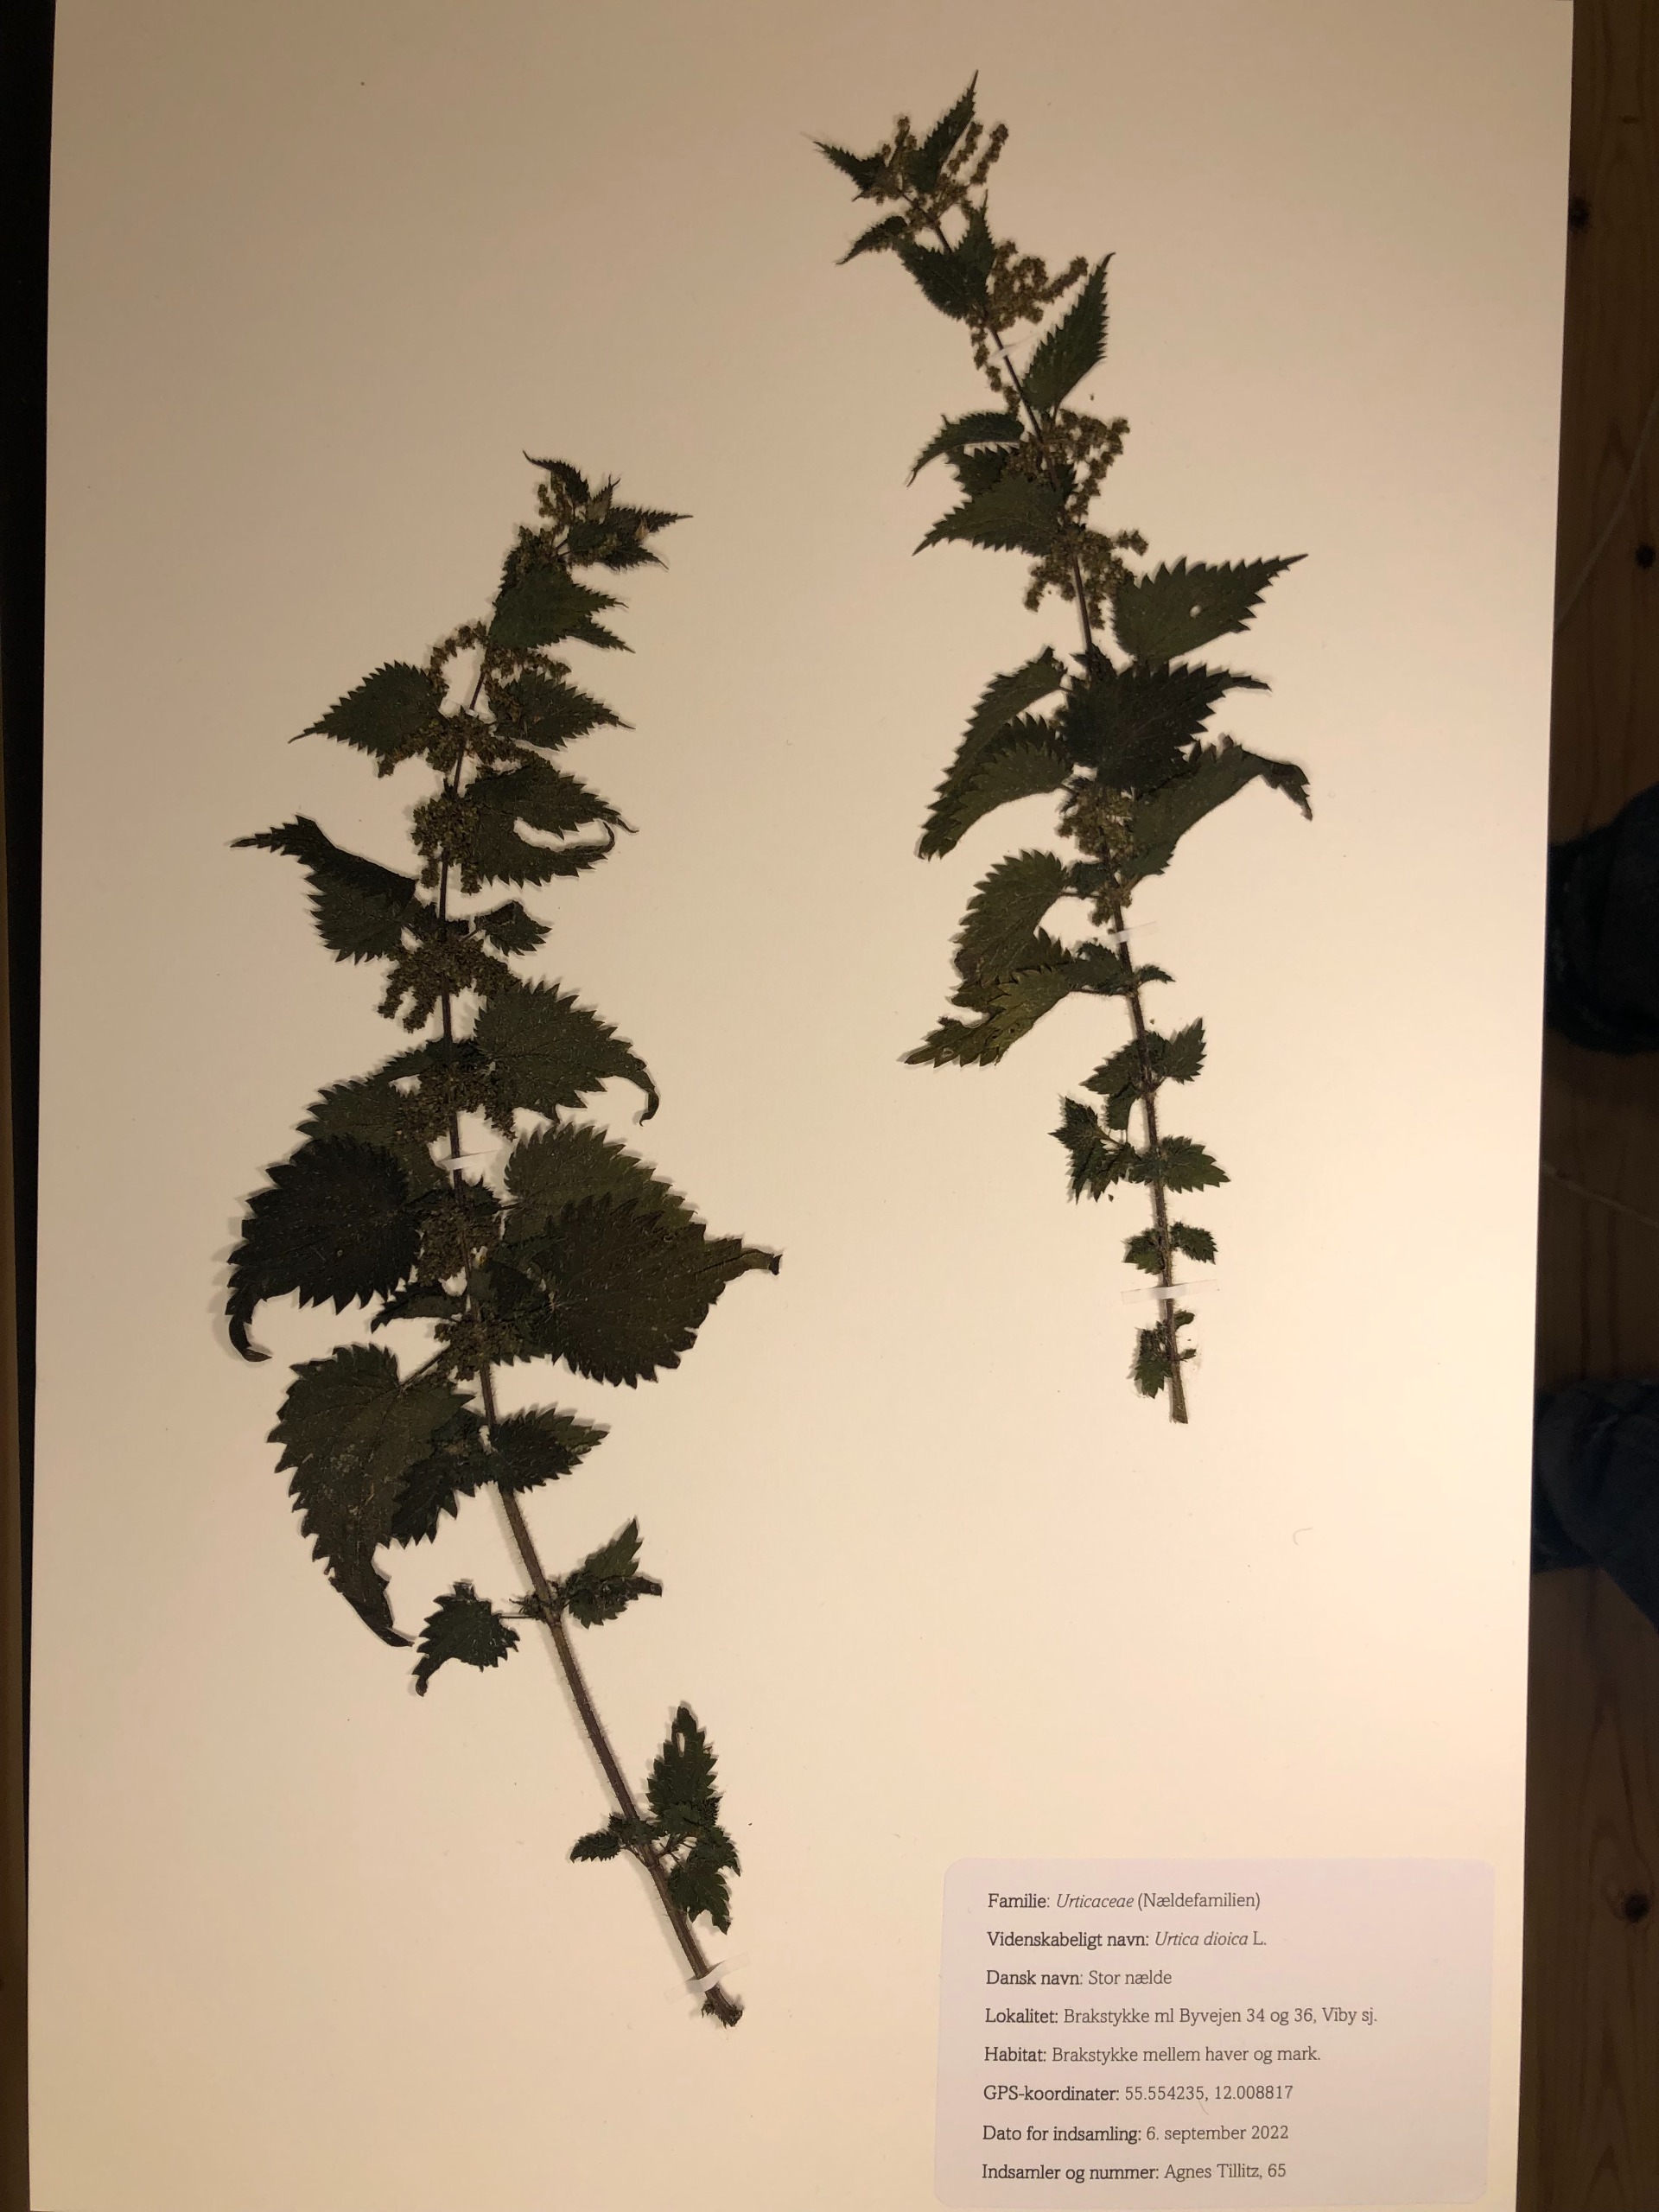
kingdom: Plantae
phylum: Tracheophyta
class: Magnoliopsida
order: Rosales
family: Urticaceae
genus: Urtica
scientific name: Urtica dioica
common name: Stor nælde
